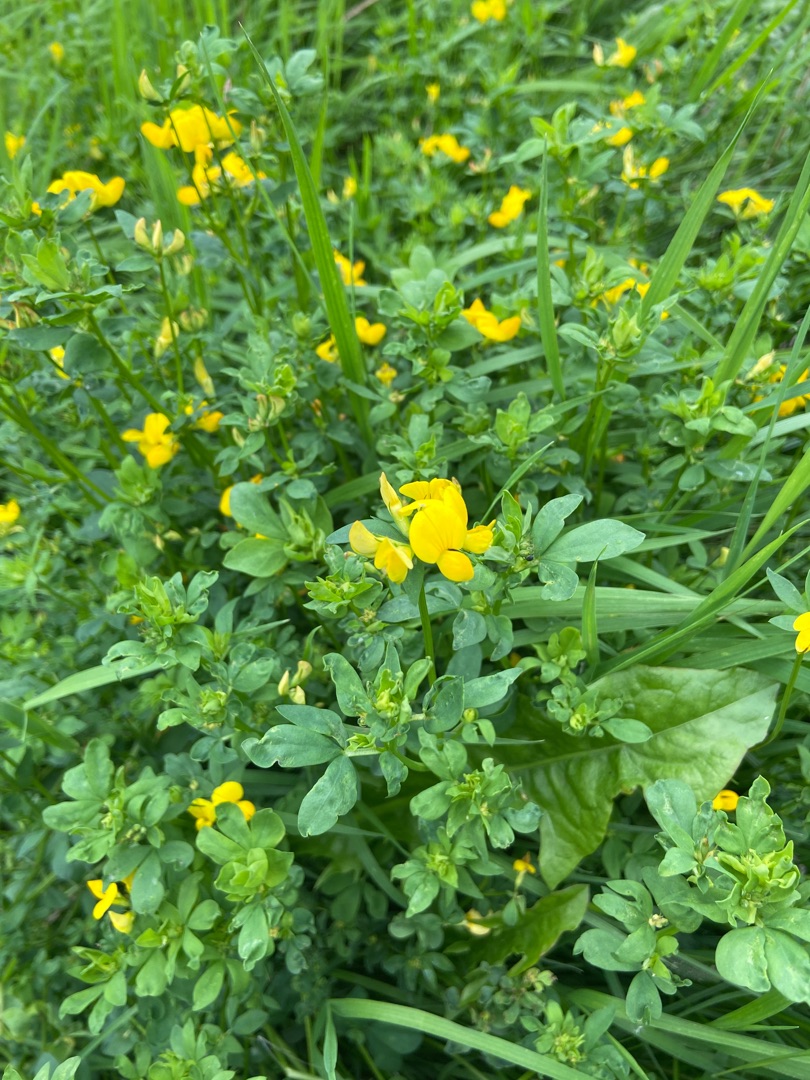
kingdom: Plantae
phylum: Tracheophyta
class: Magnoliopsida
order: Fabales
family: Fabaceae
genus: Lotus
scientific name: Lotus corniculatus
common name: Almindelig kællingetand
